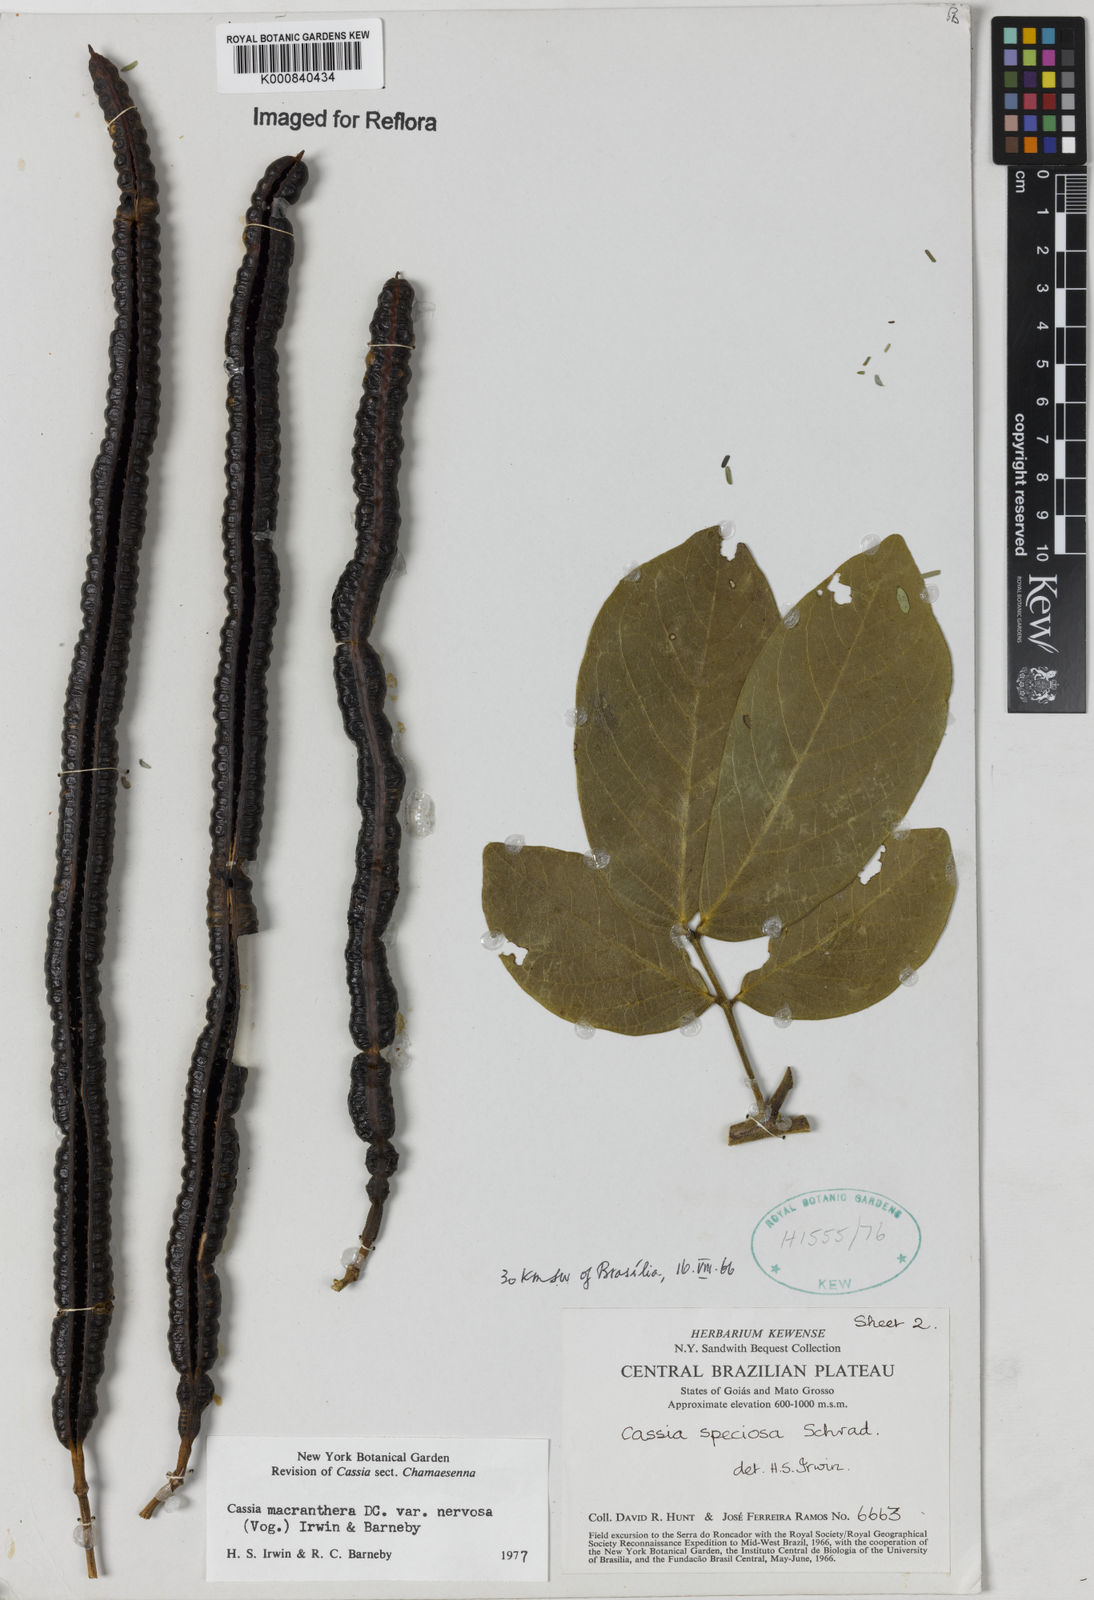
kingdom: Plantae
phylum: Tracheophyta
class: Magnoliopsida
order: Fabales
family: Fabaceae
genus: Senna
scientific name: Senna macranthera
